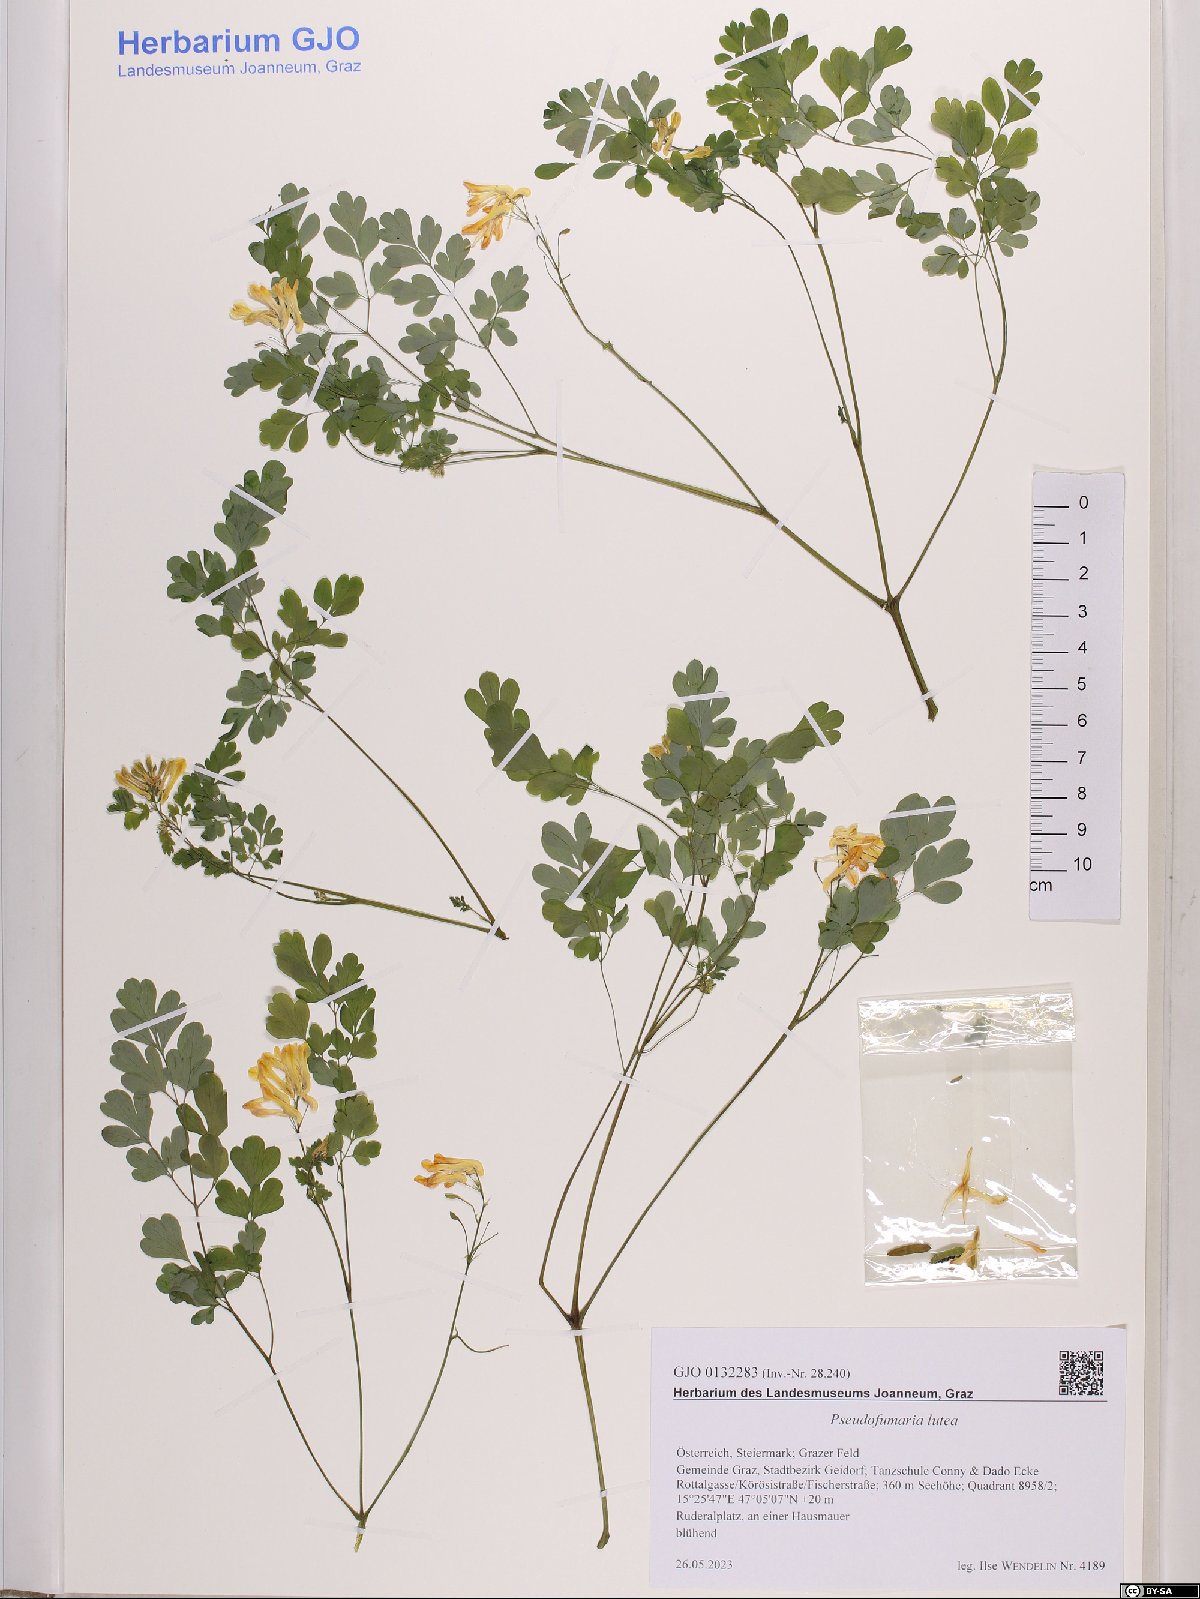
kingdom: Plantae
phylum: Tracheophyta
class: Magnoliopsida
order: Ranunculales
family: Papaveraceae
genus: Pseudofumaria
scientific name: Pseudofumaria lutea
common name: Yellow corydalis
